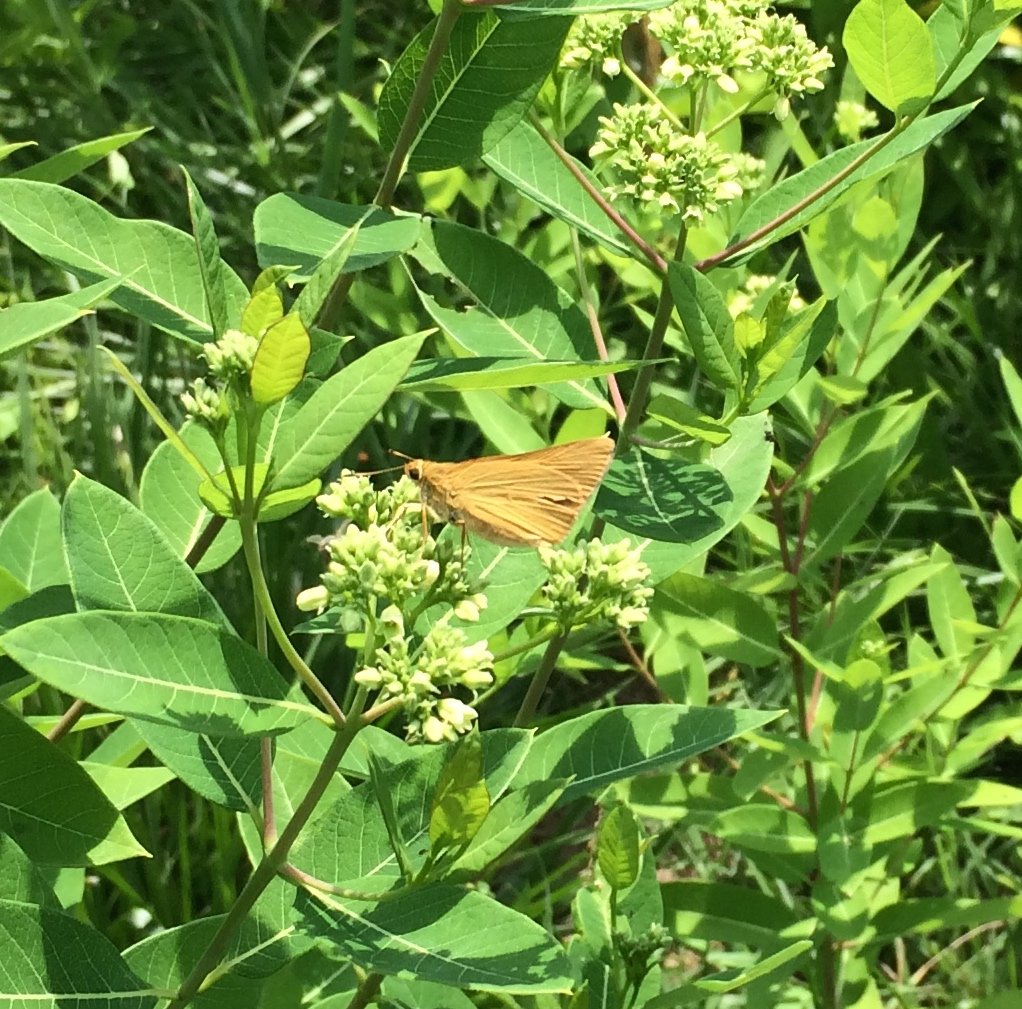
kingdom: Animalia
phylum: Arthropoda
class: Insecta
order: Lepidoptera
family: Hesperiidae
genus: Problema
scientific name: Problema bulenta
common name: Rare Skipper
